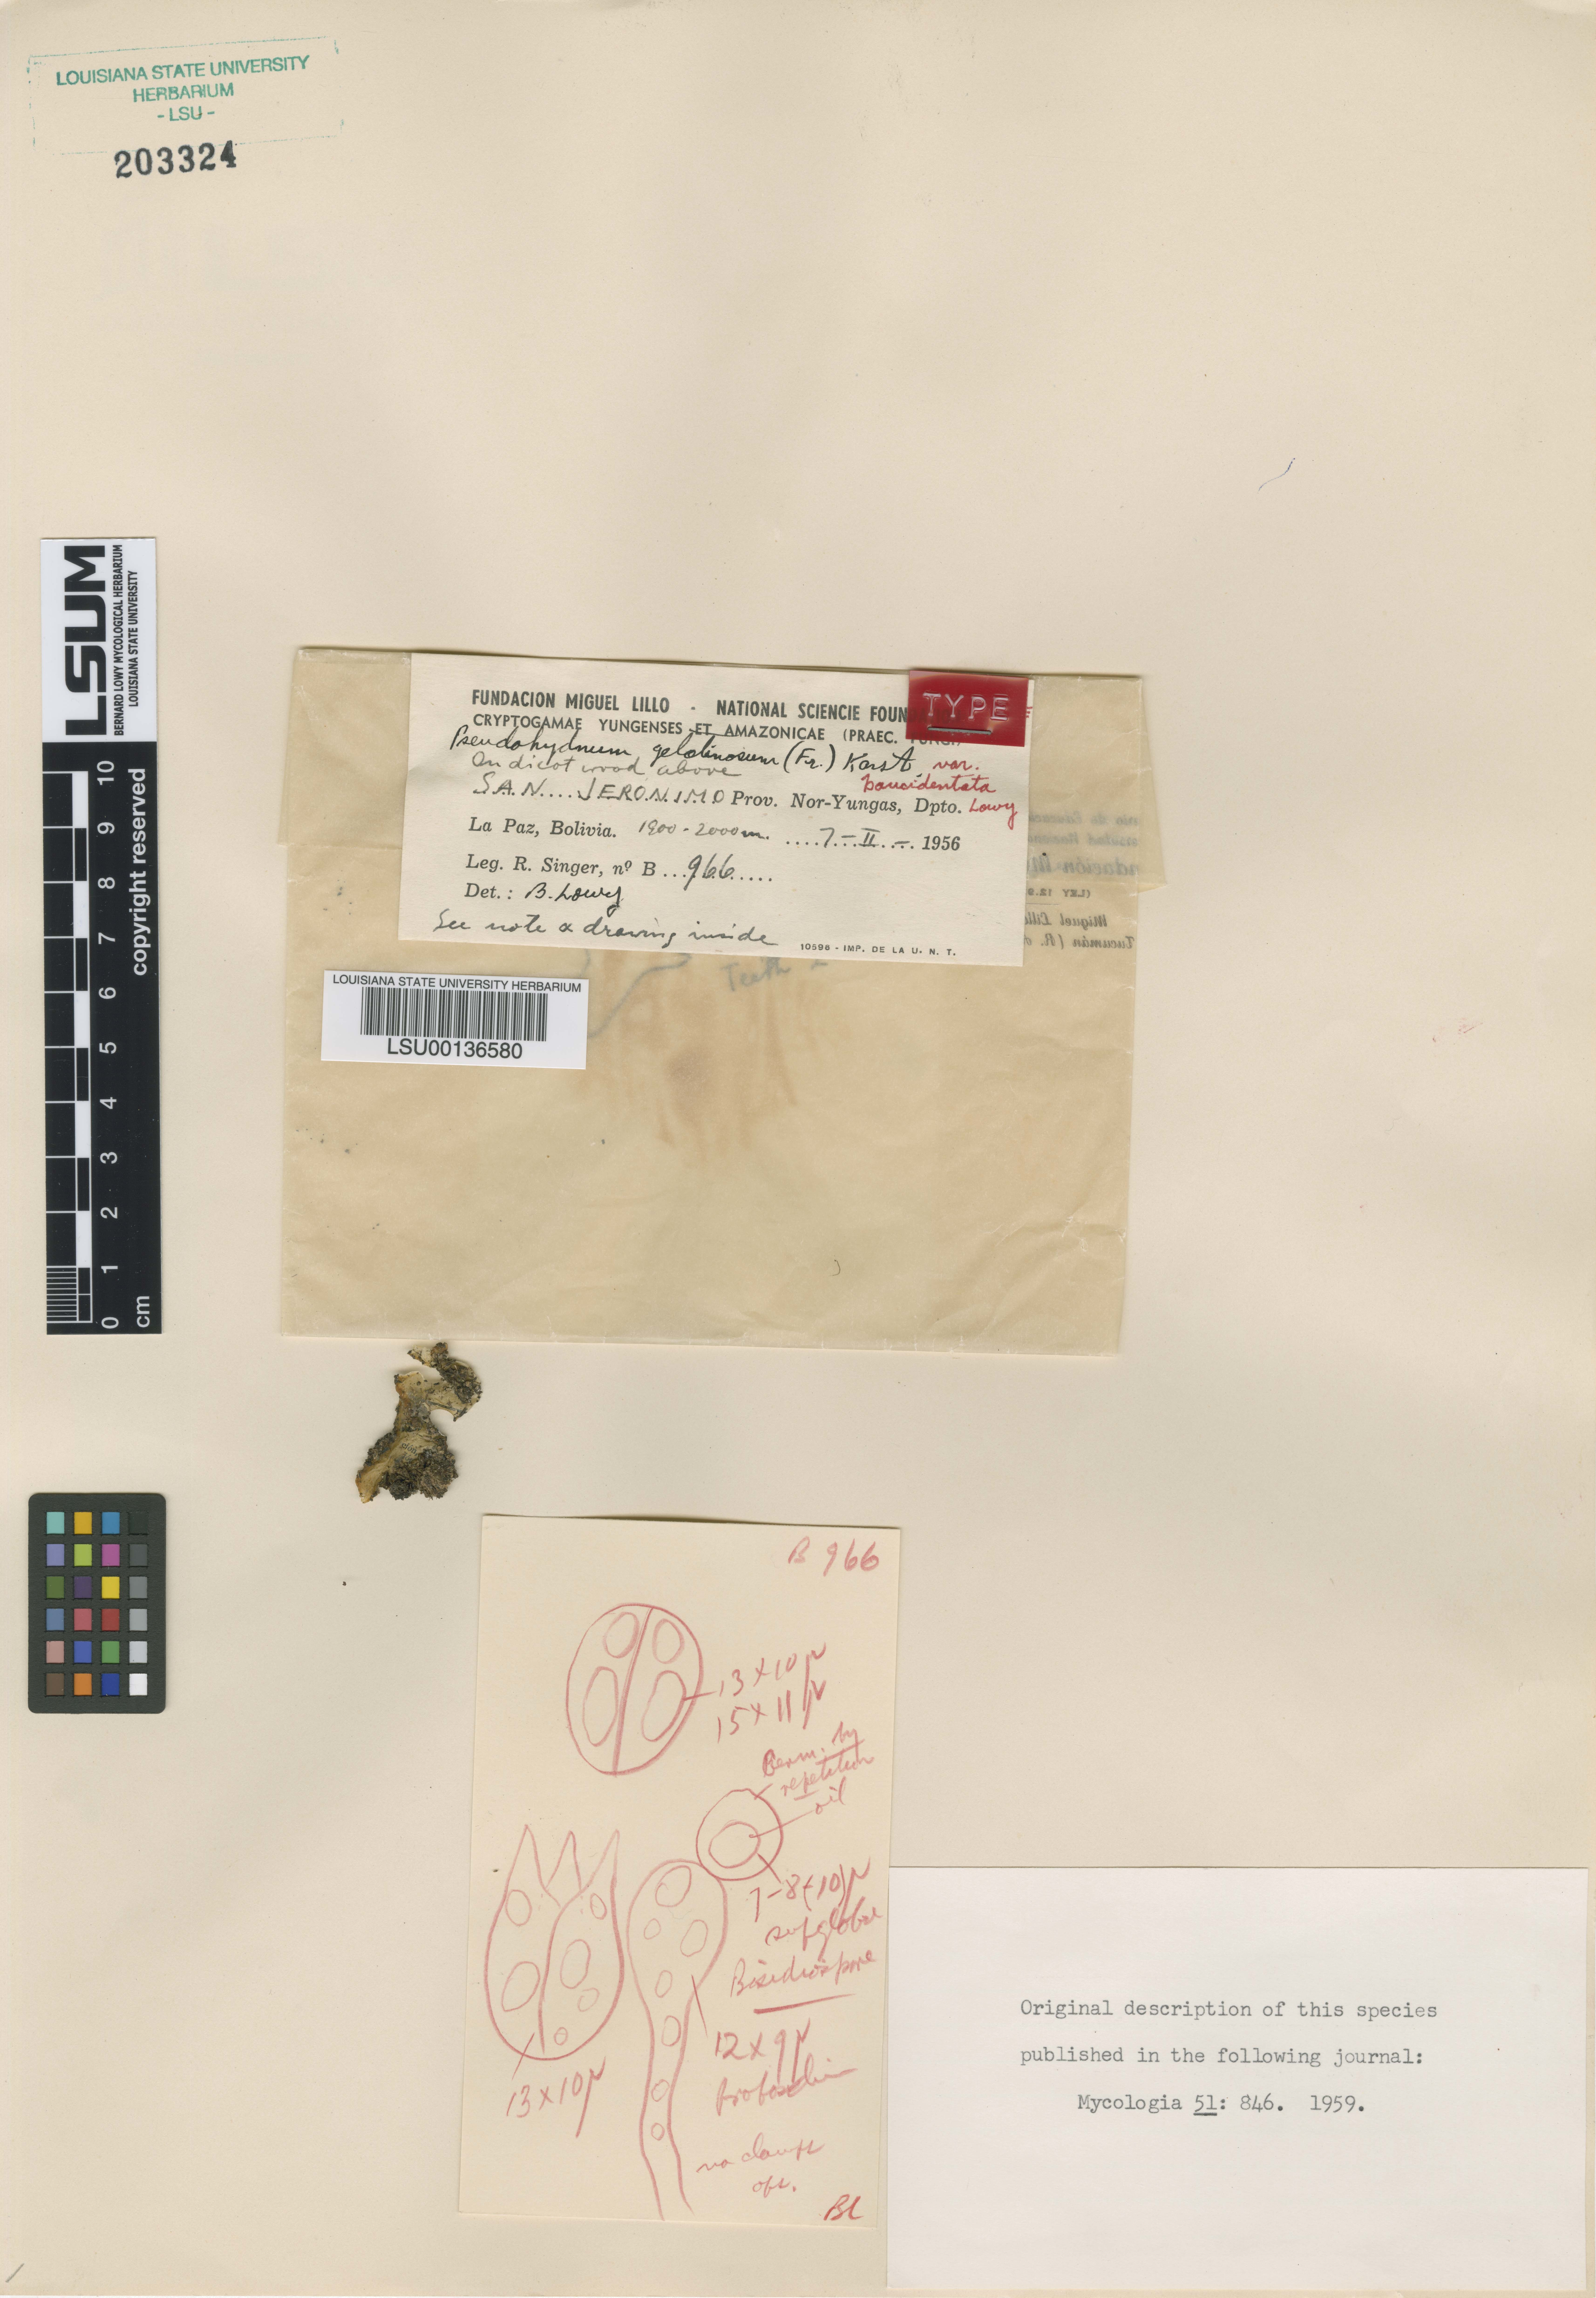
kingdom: Fungi
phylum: Basidiomycota
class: Agaricomycetes
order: Auriculariales
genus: Pseudohydnum
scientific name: Pseudohydnum gelatinosum
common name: Jelly tongue
